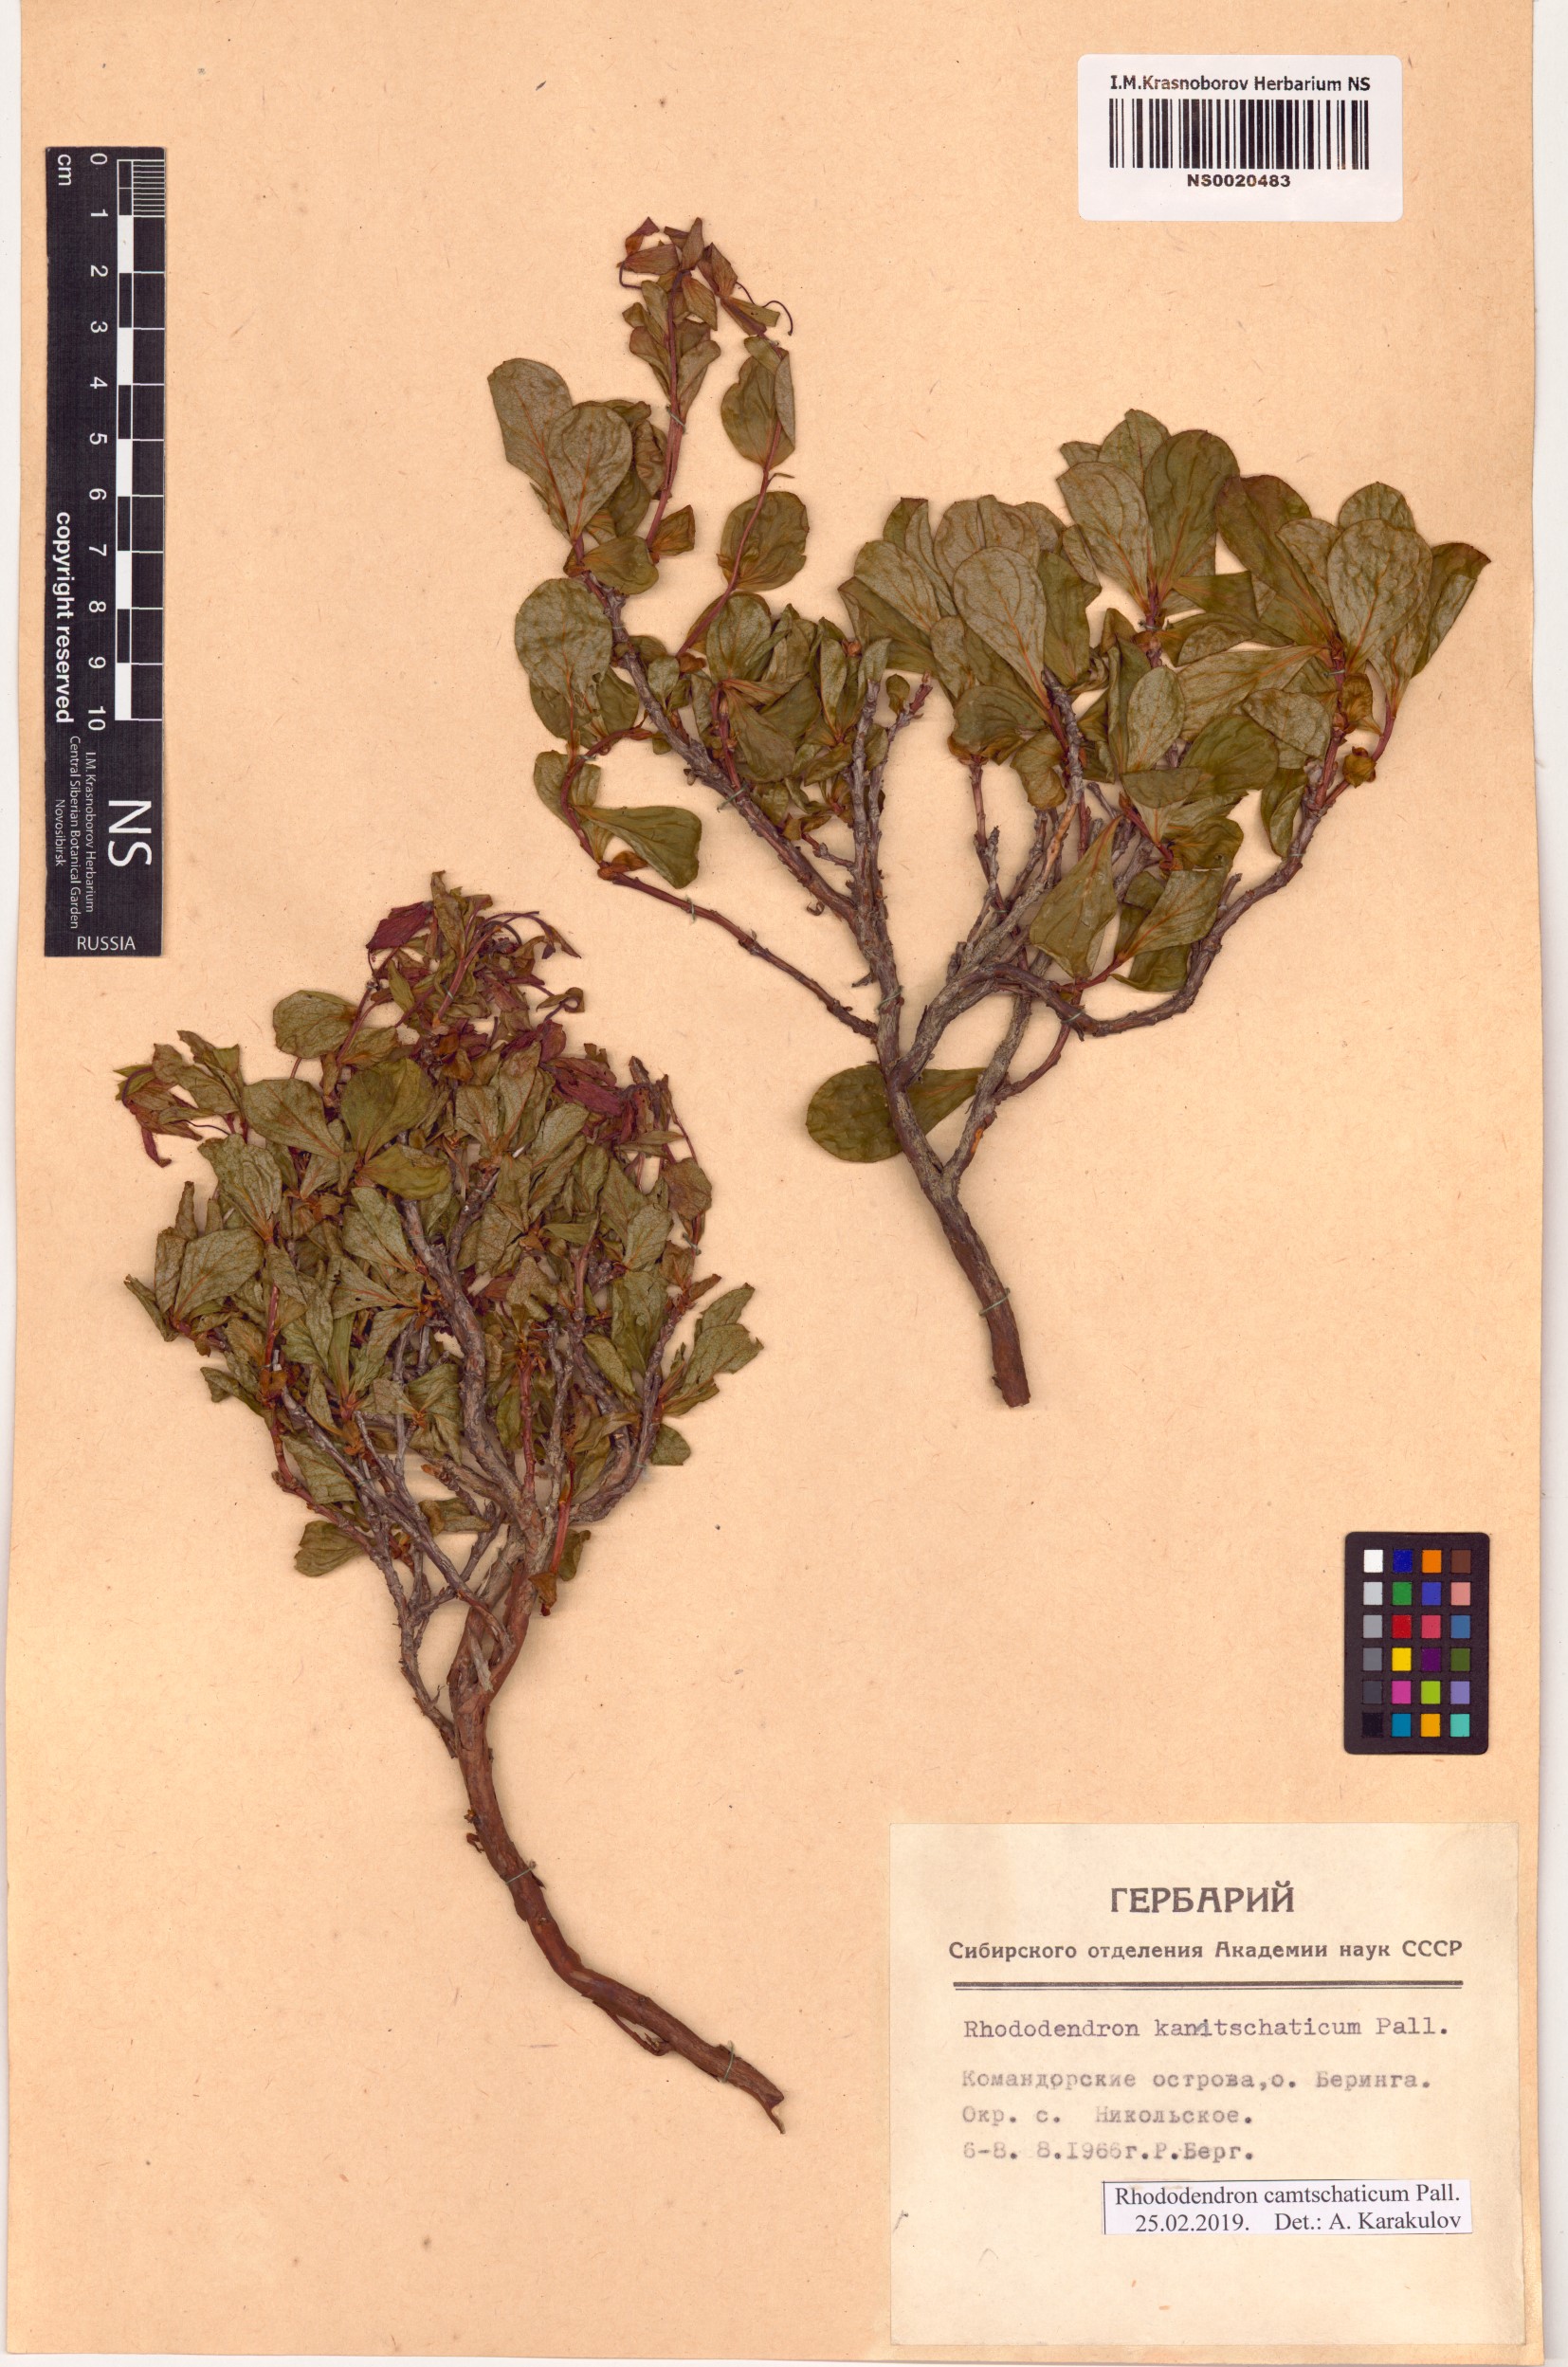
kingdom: Plantae
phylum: Tracheophyta
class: Magnoliopsida
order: Ericales
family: Ericaceae
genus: Rhododendron
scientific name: Rhododendron camtschaticum
